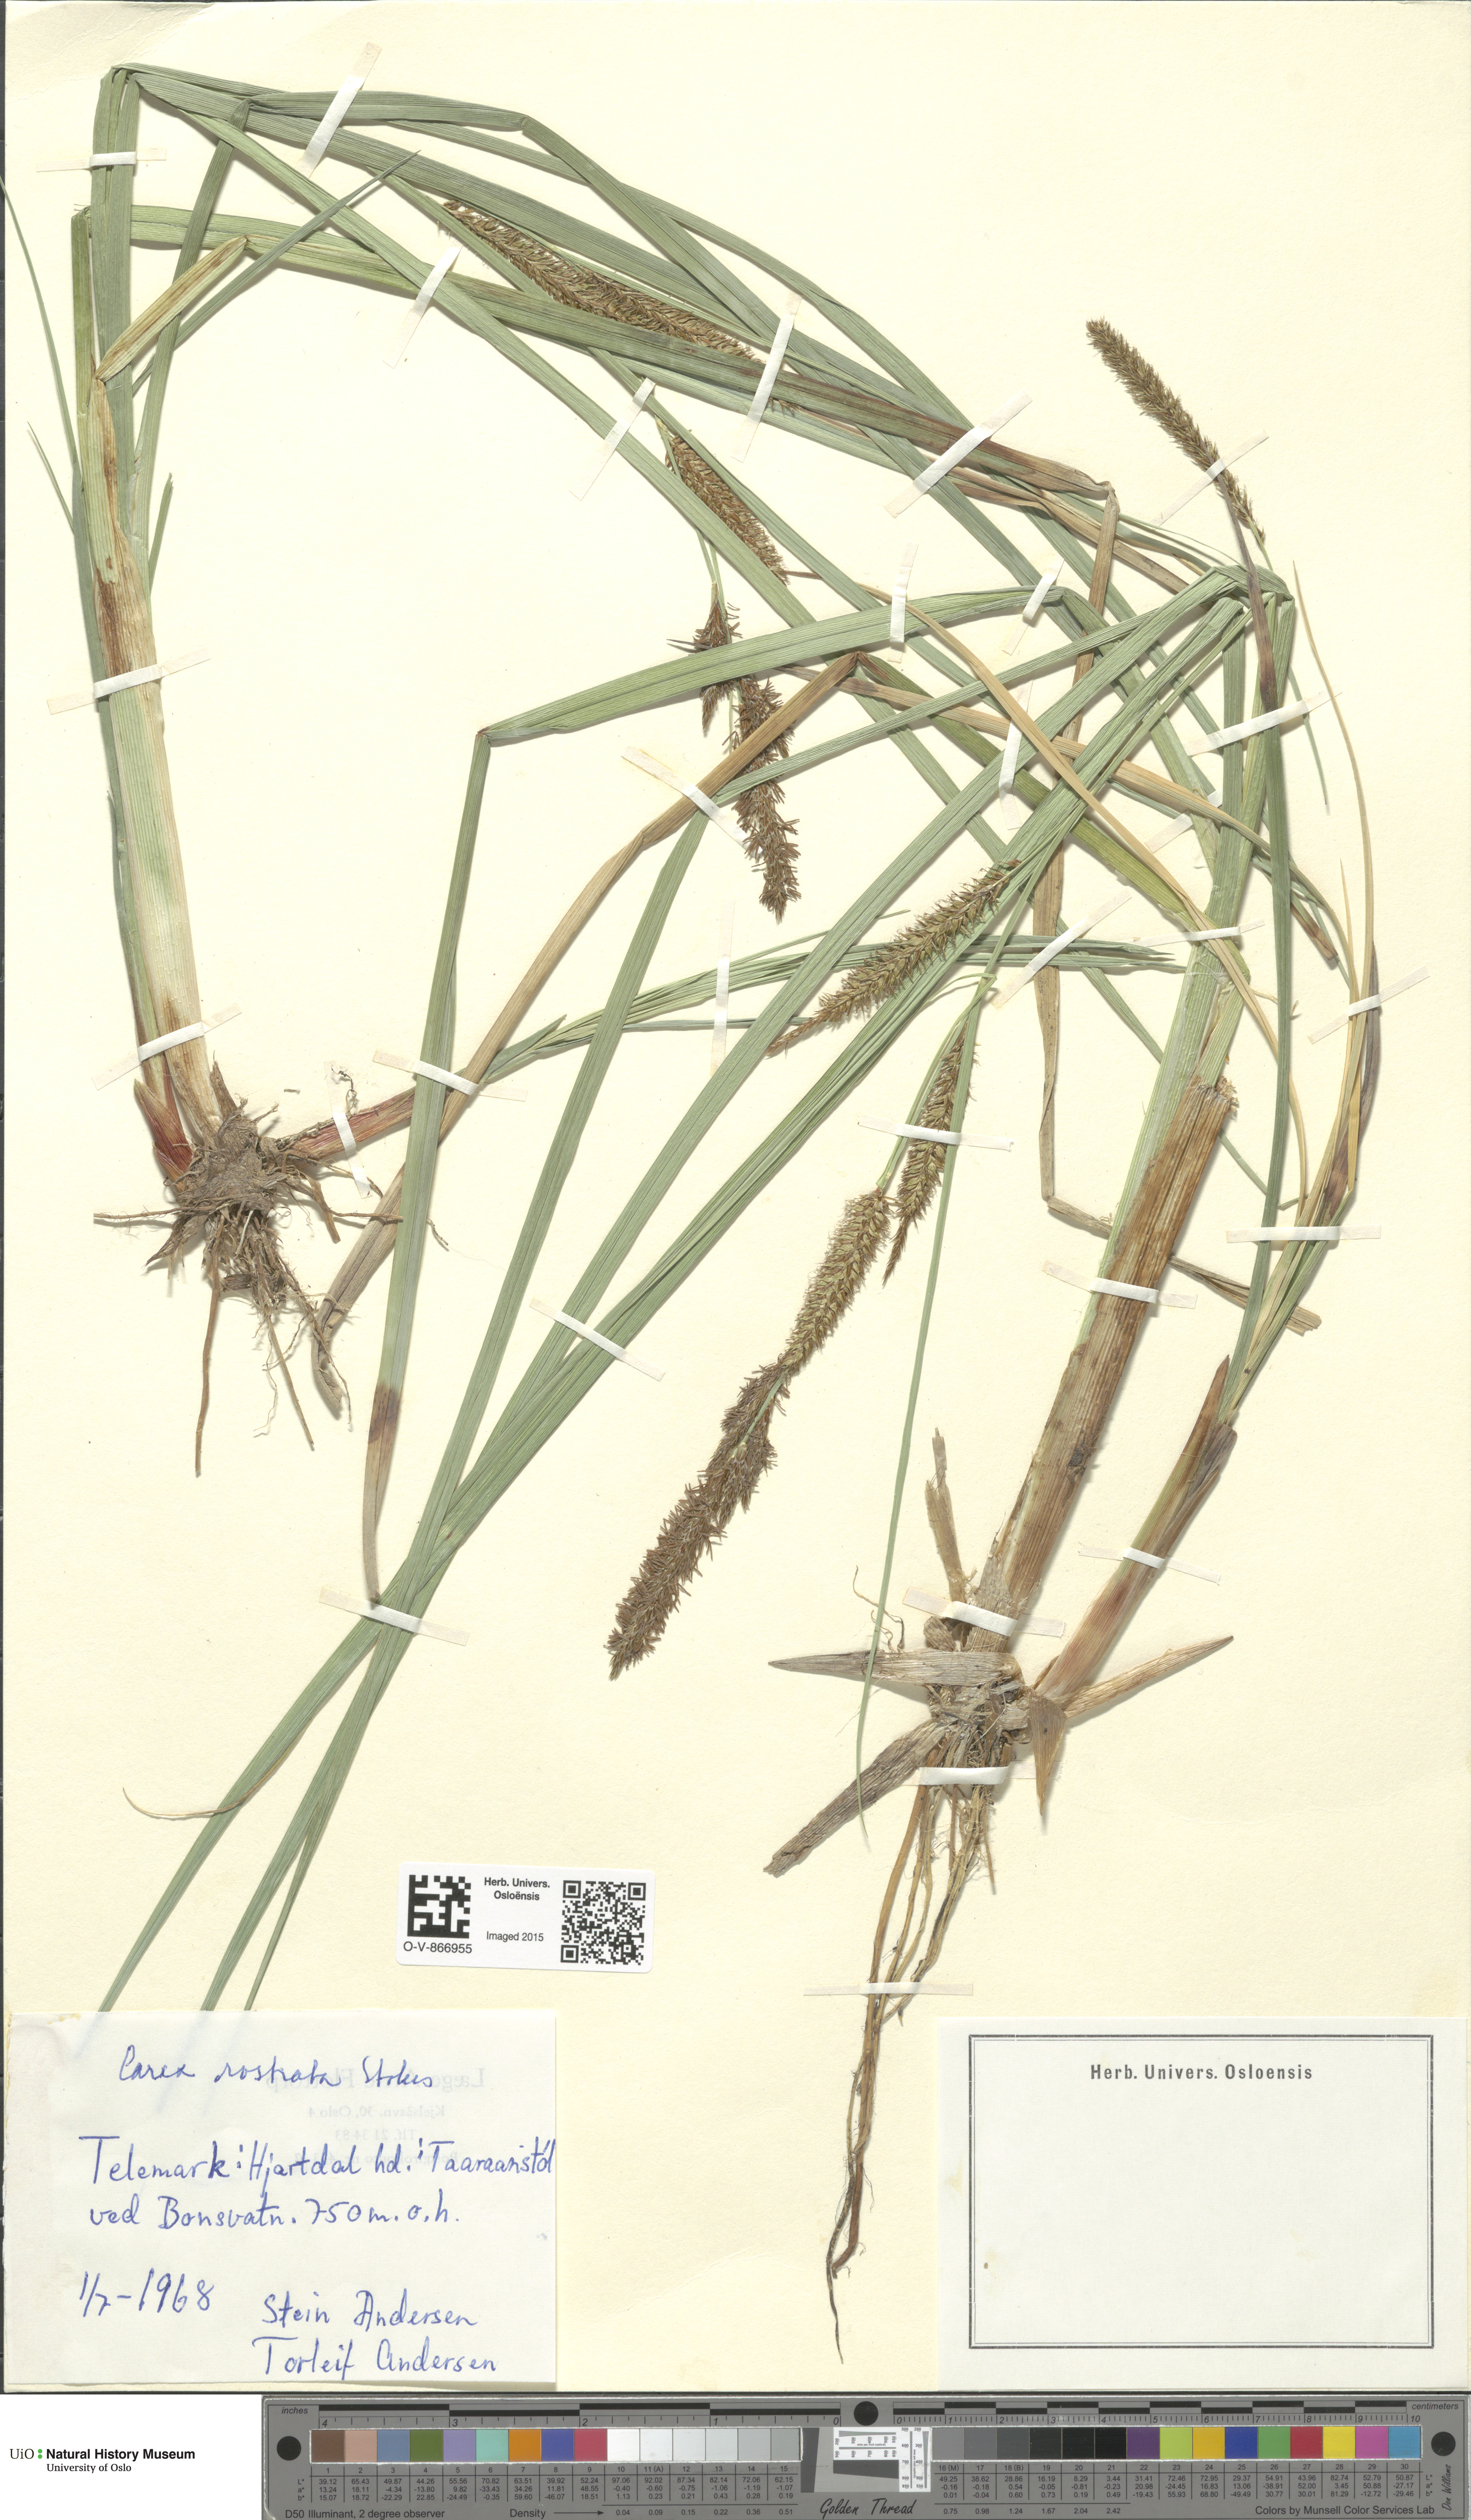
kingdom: Plantae
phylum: Tracheophyta
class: Liliopsida
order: Poales
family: Cyperaceae
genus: Carex
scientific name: Carex rostrata
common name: Bottle sedge
